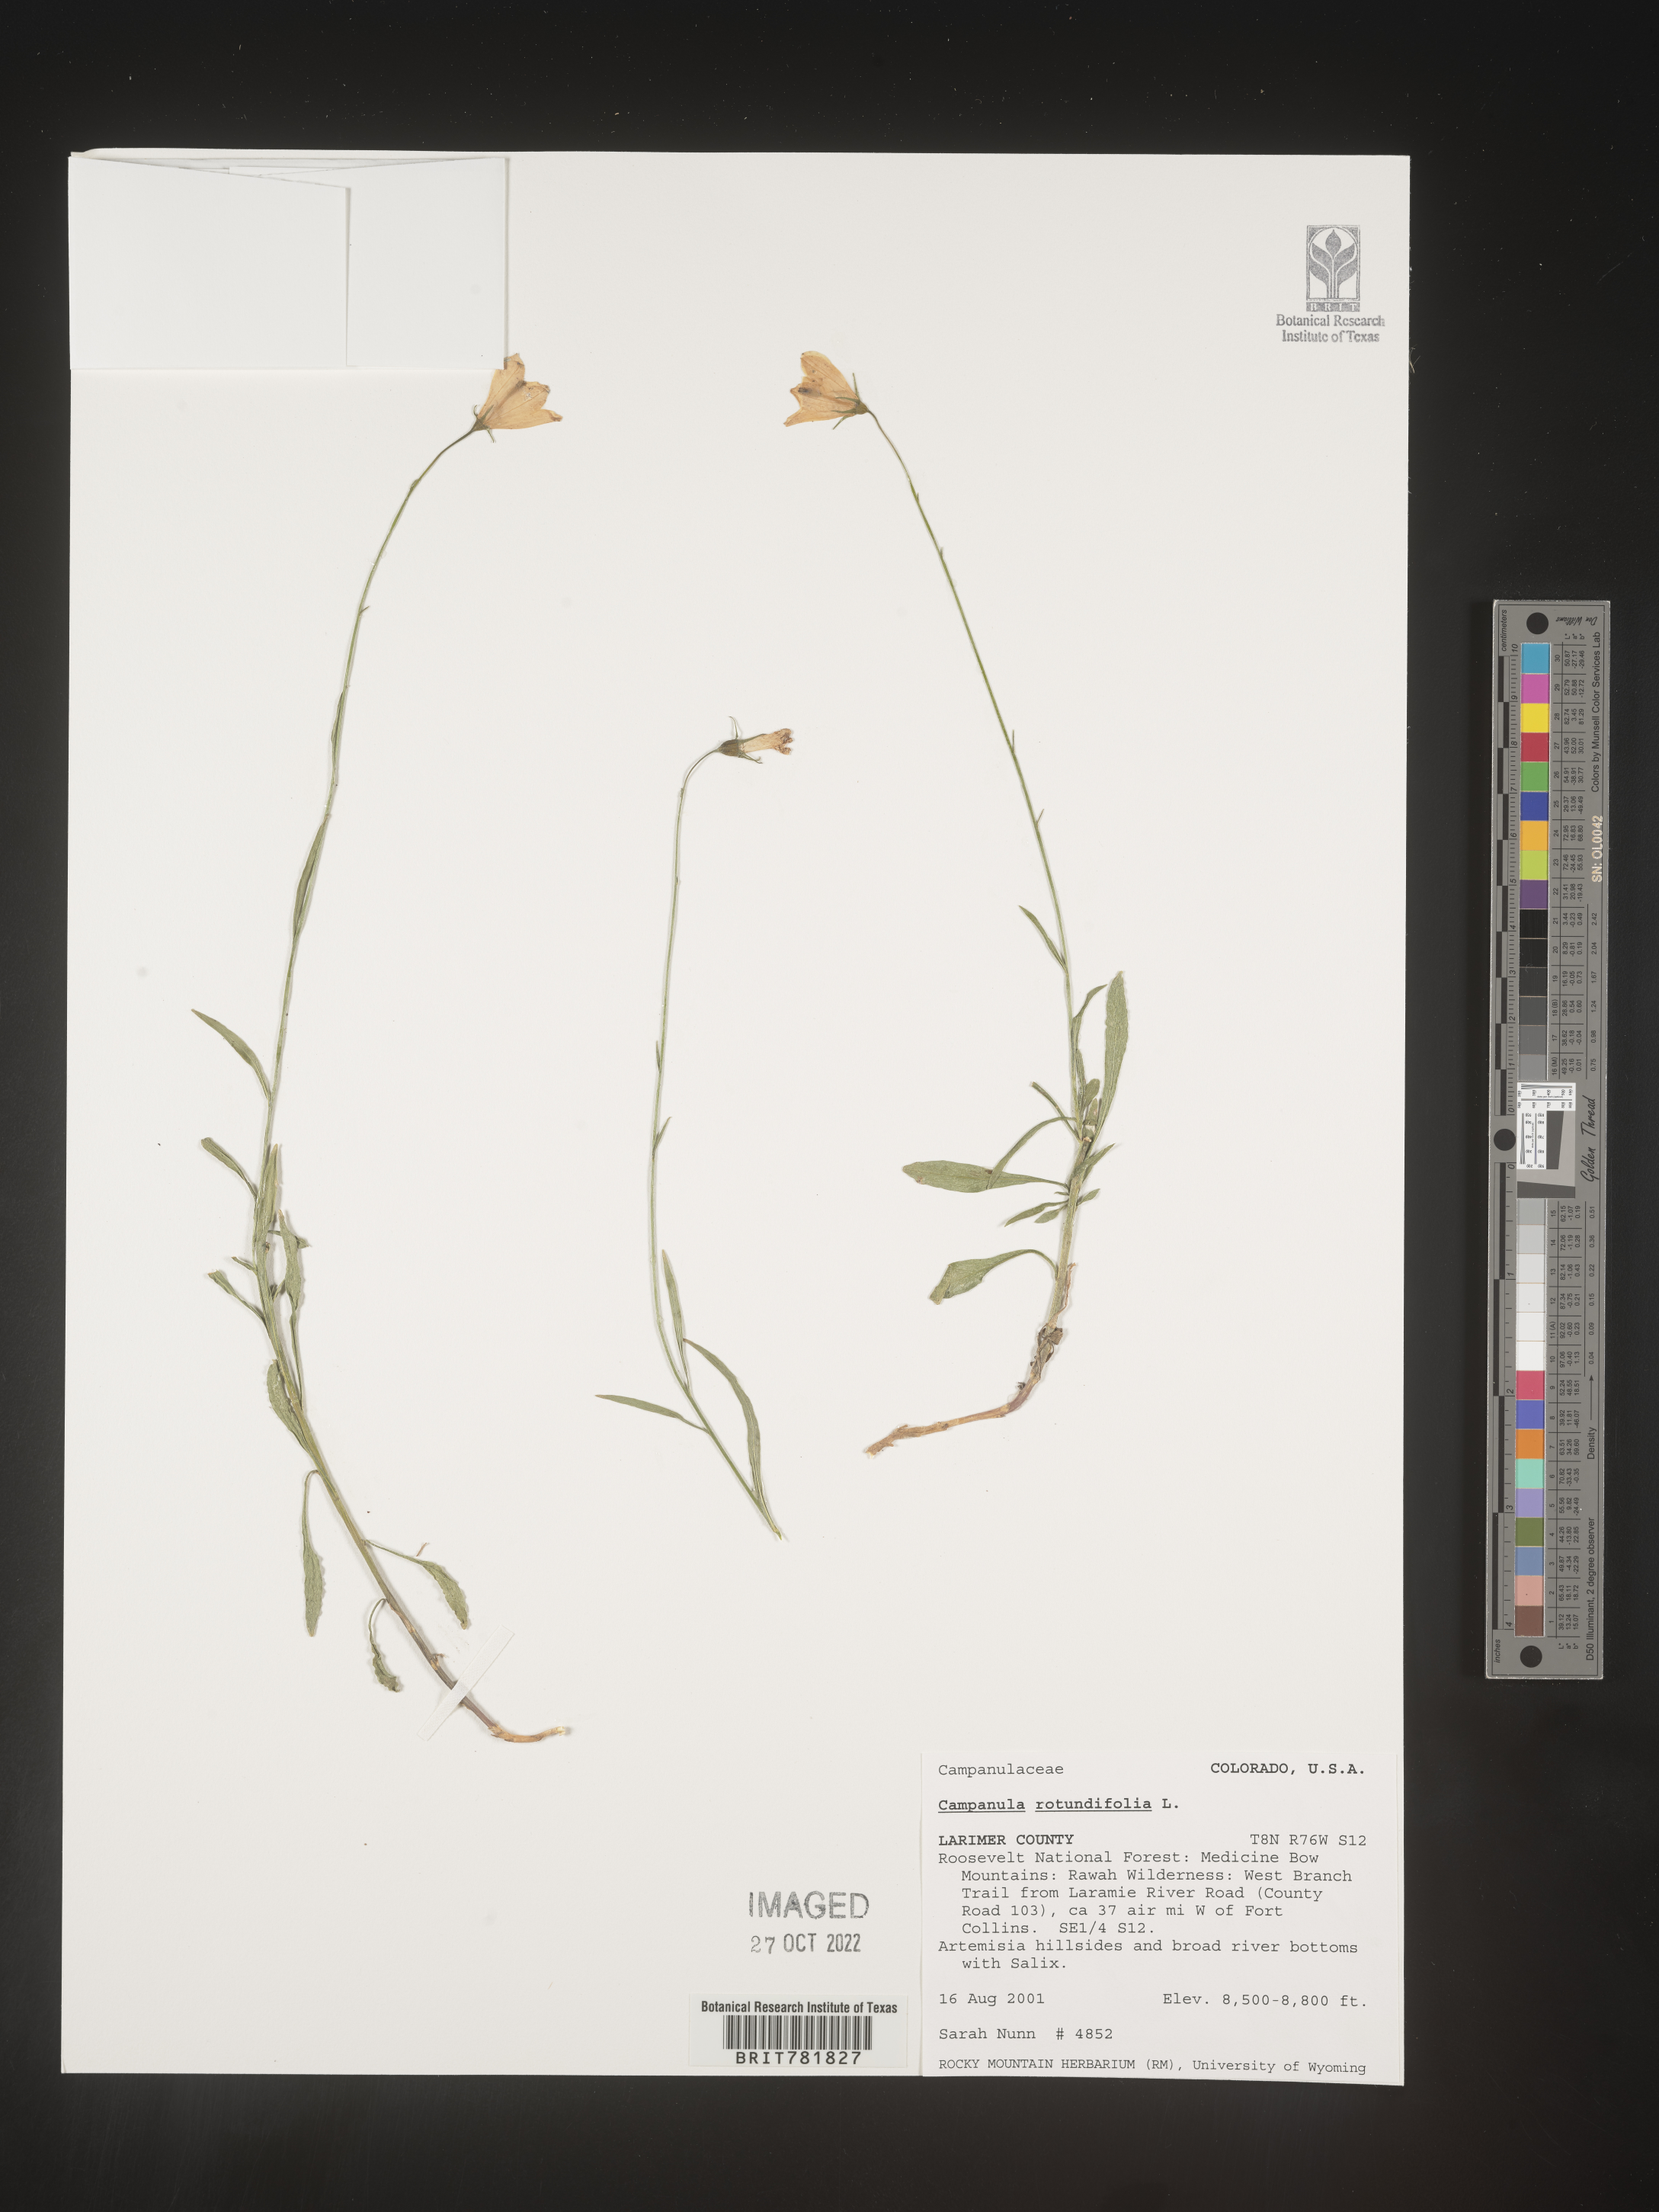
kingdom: Plantae
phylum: Tracheophyta
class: Magnoliopsida
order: Asterales
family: Campanulaceae
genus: Campanula
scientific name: Campanula rotundifolia
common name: Harebell
